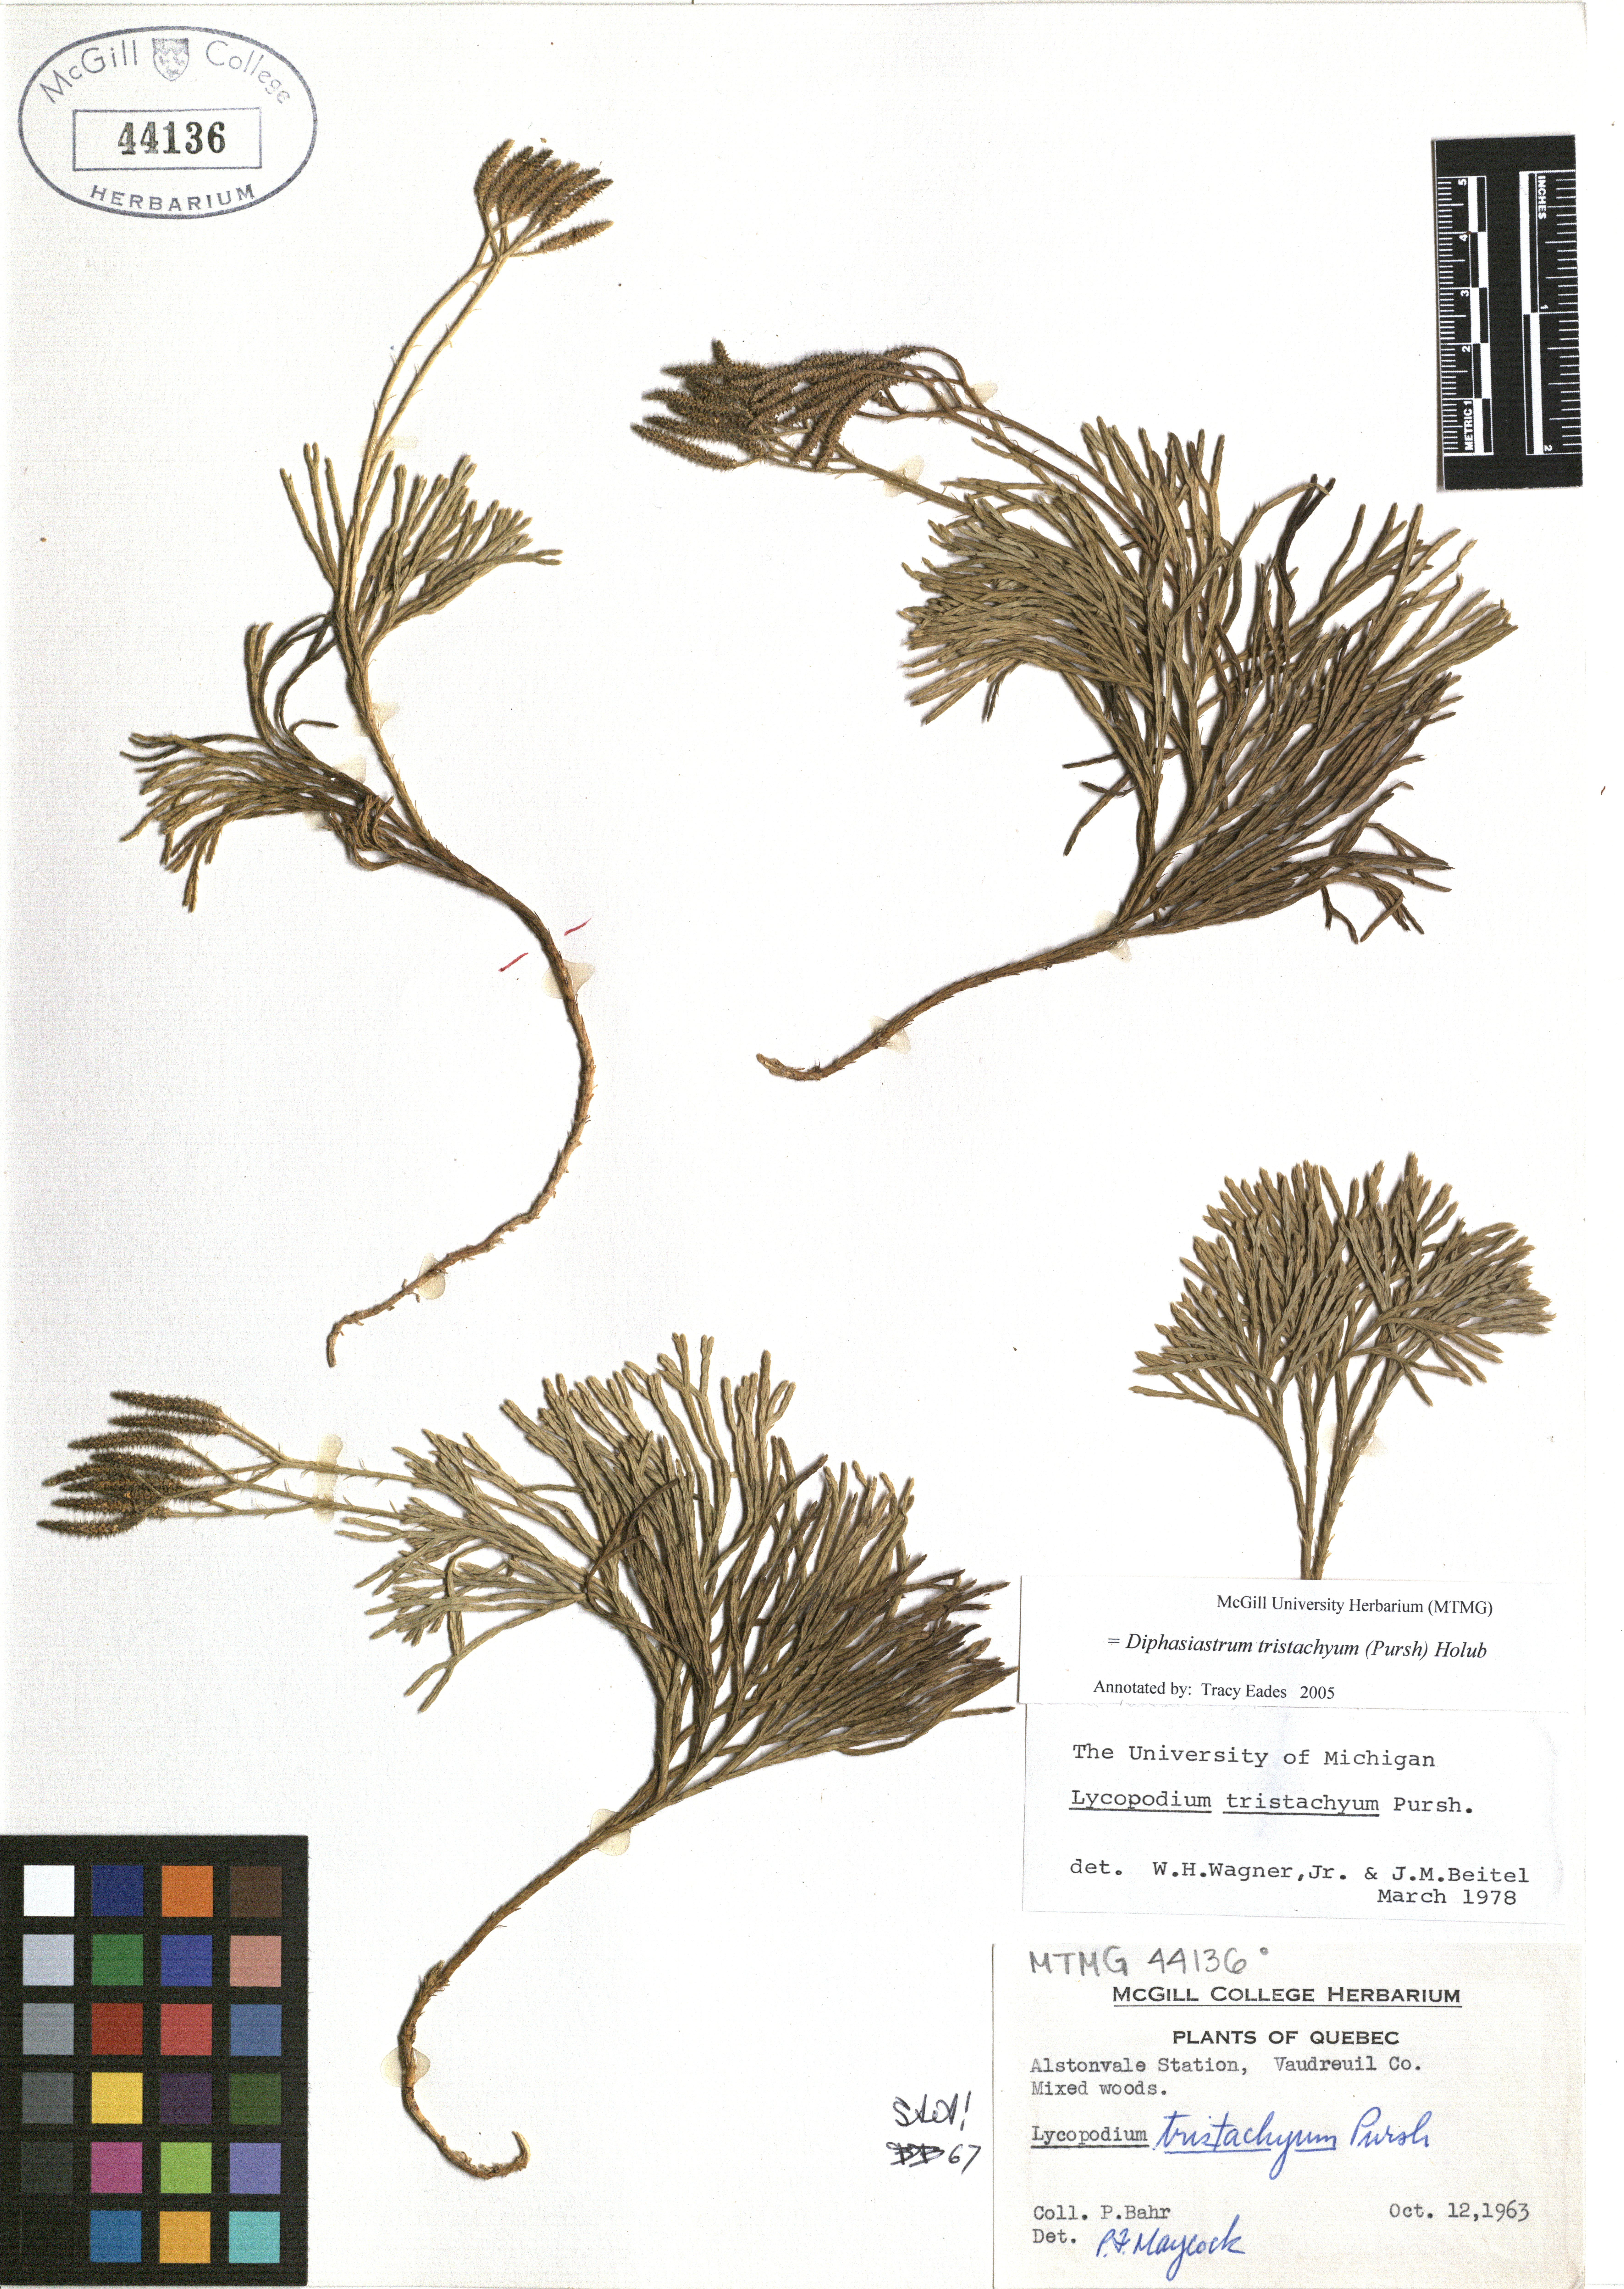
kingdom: Plantae
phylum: Tracheophyta
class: Lycopodiopsida
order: Lycopodiales
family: Lycopodiaceae
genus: Diphasiastrum
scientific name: Diphasiastrum tristachyum
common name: Blue ground-cedar
